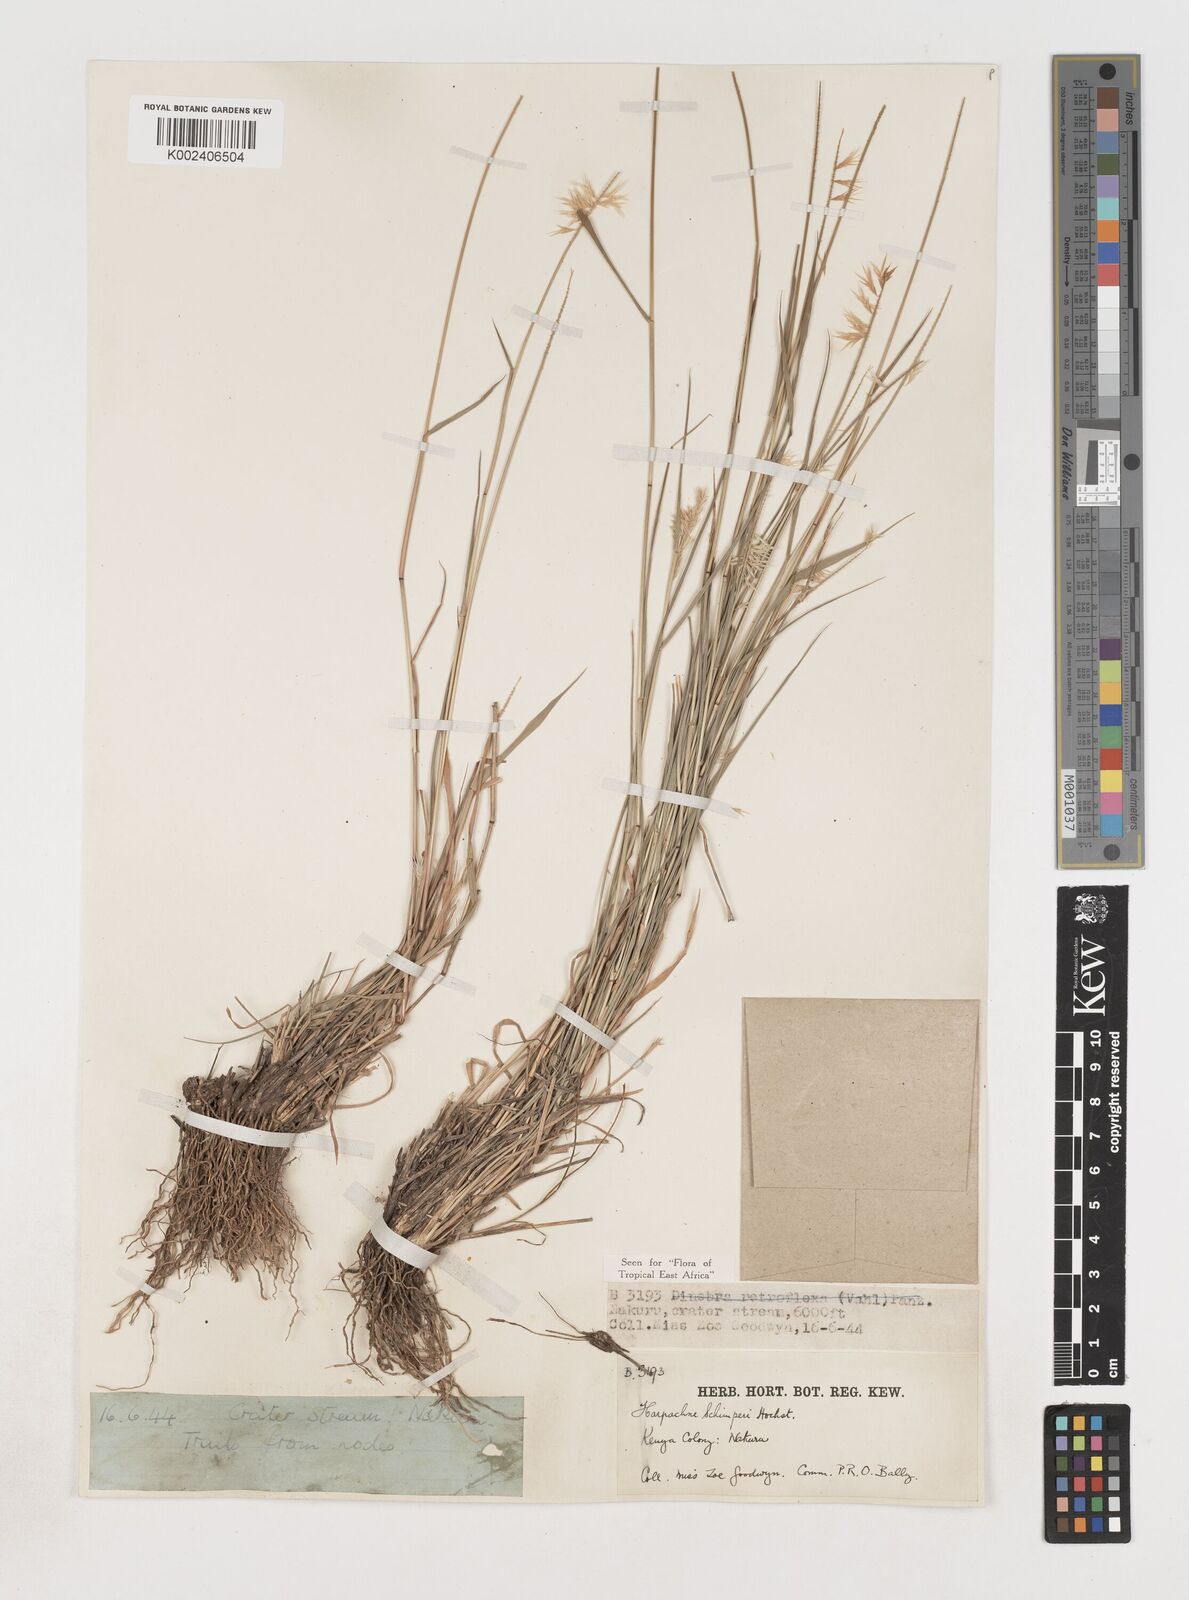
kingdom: Plantae
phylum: Tracheophyta
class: Liliopsida
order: Poales
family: Poaceae
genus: Harpachne
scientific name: Harpachne schimperi
